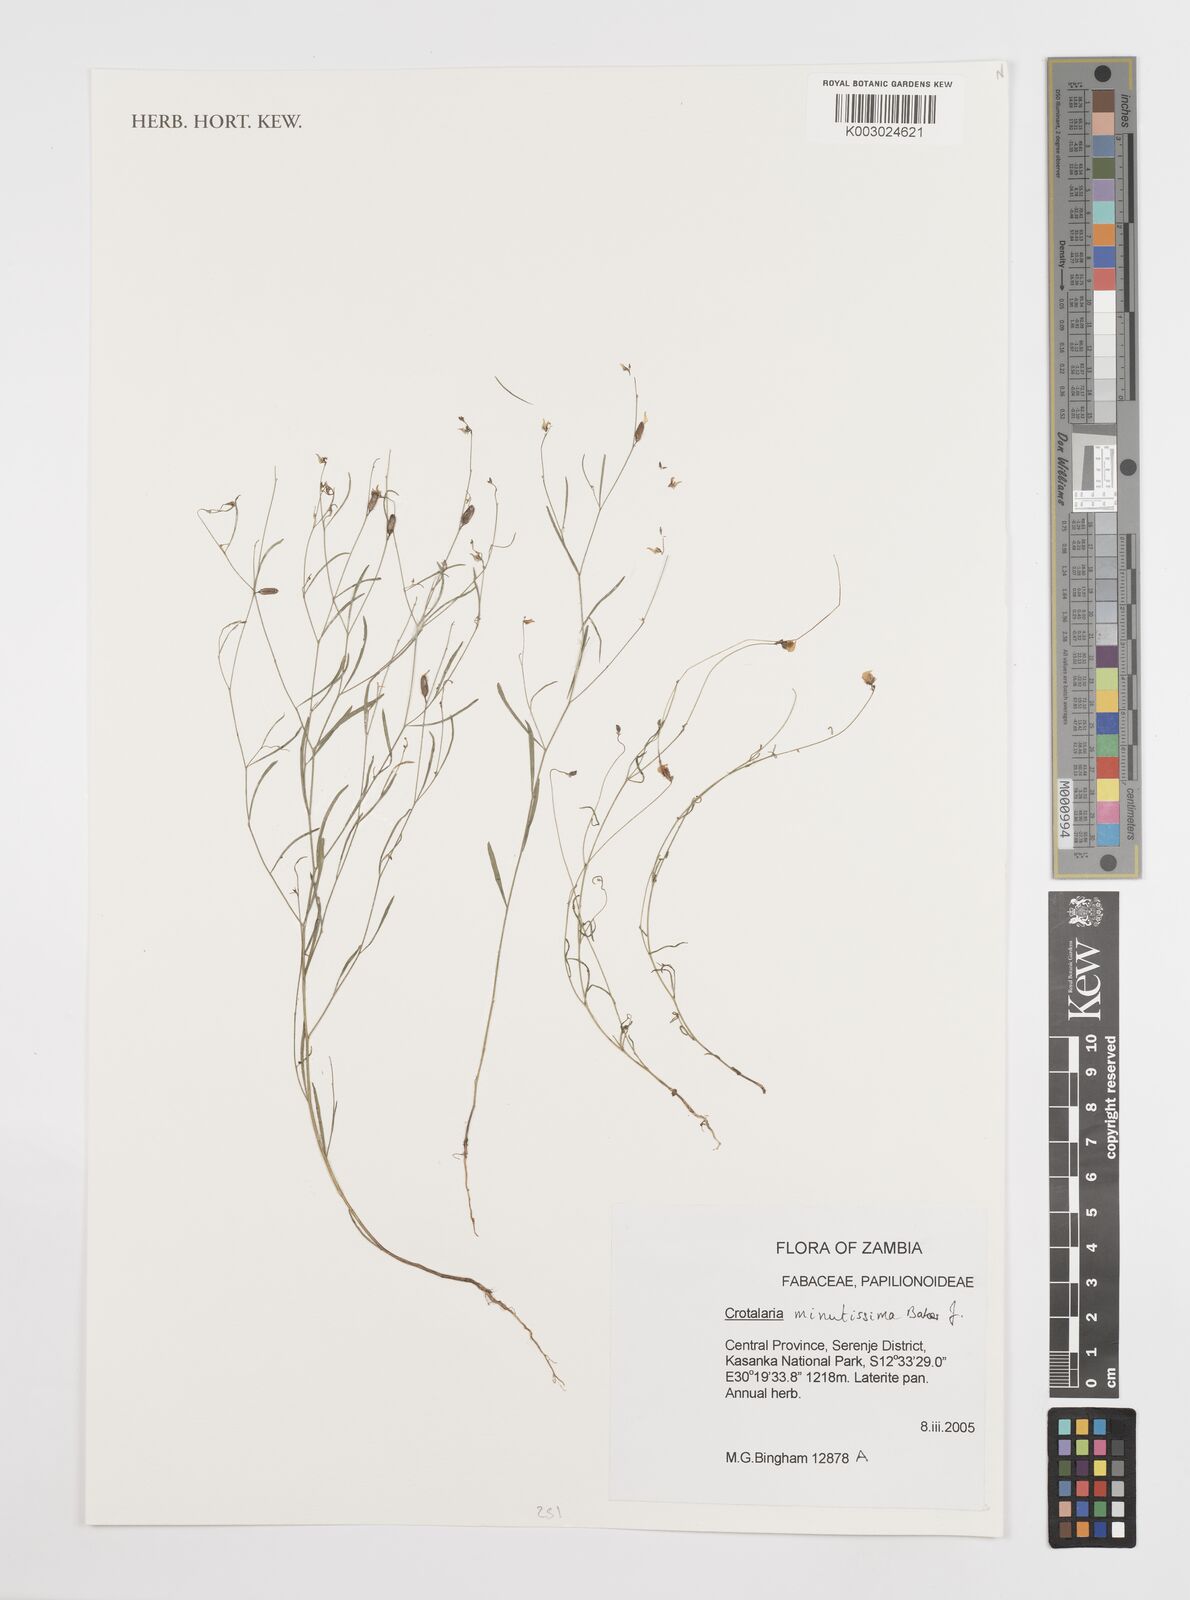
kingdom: Plantae
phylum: Tracheophyta
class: Magnoliopsida
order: Fabales
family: Fabaceae
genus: Crotalaria
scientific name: Crotalaria minutissima
